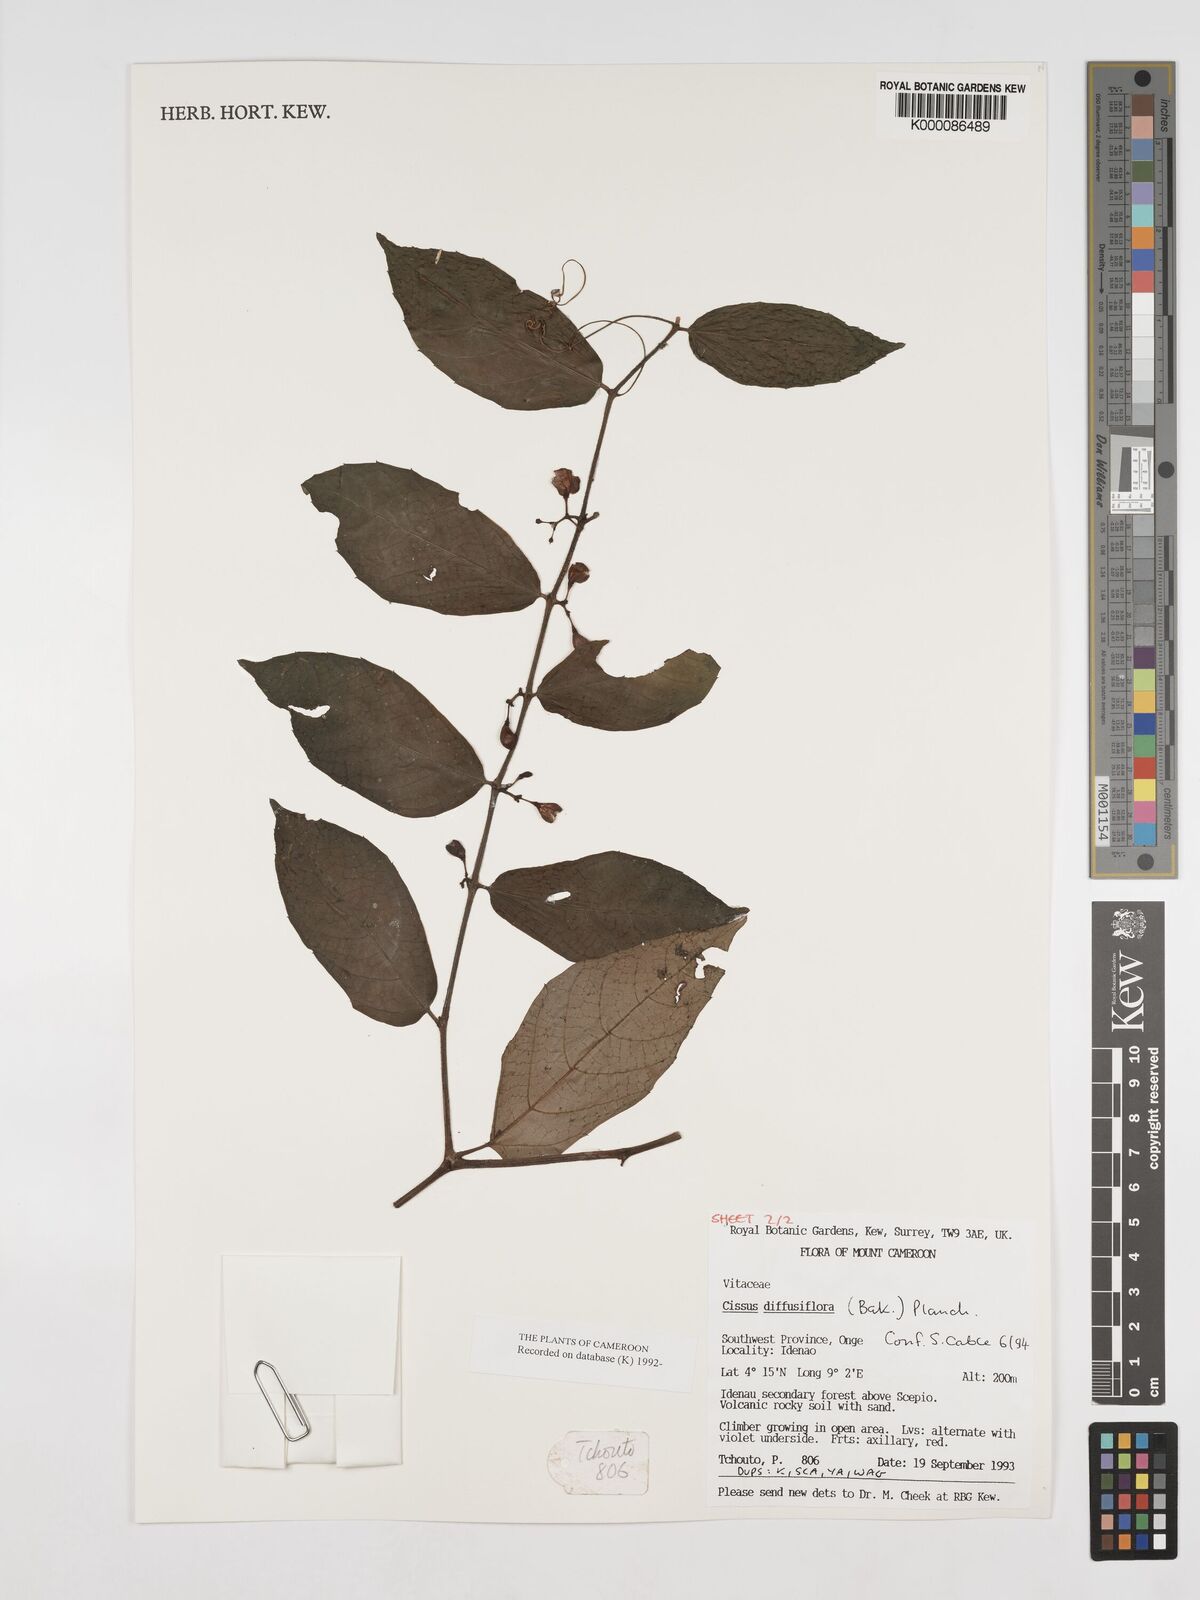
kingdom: Plantae
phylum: Tracheophyta
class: Magnoliopsida
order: Vitales
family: Vitaceae
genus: Cissus
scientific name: Cissus diffusiflora
